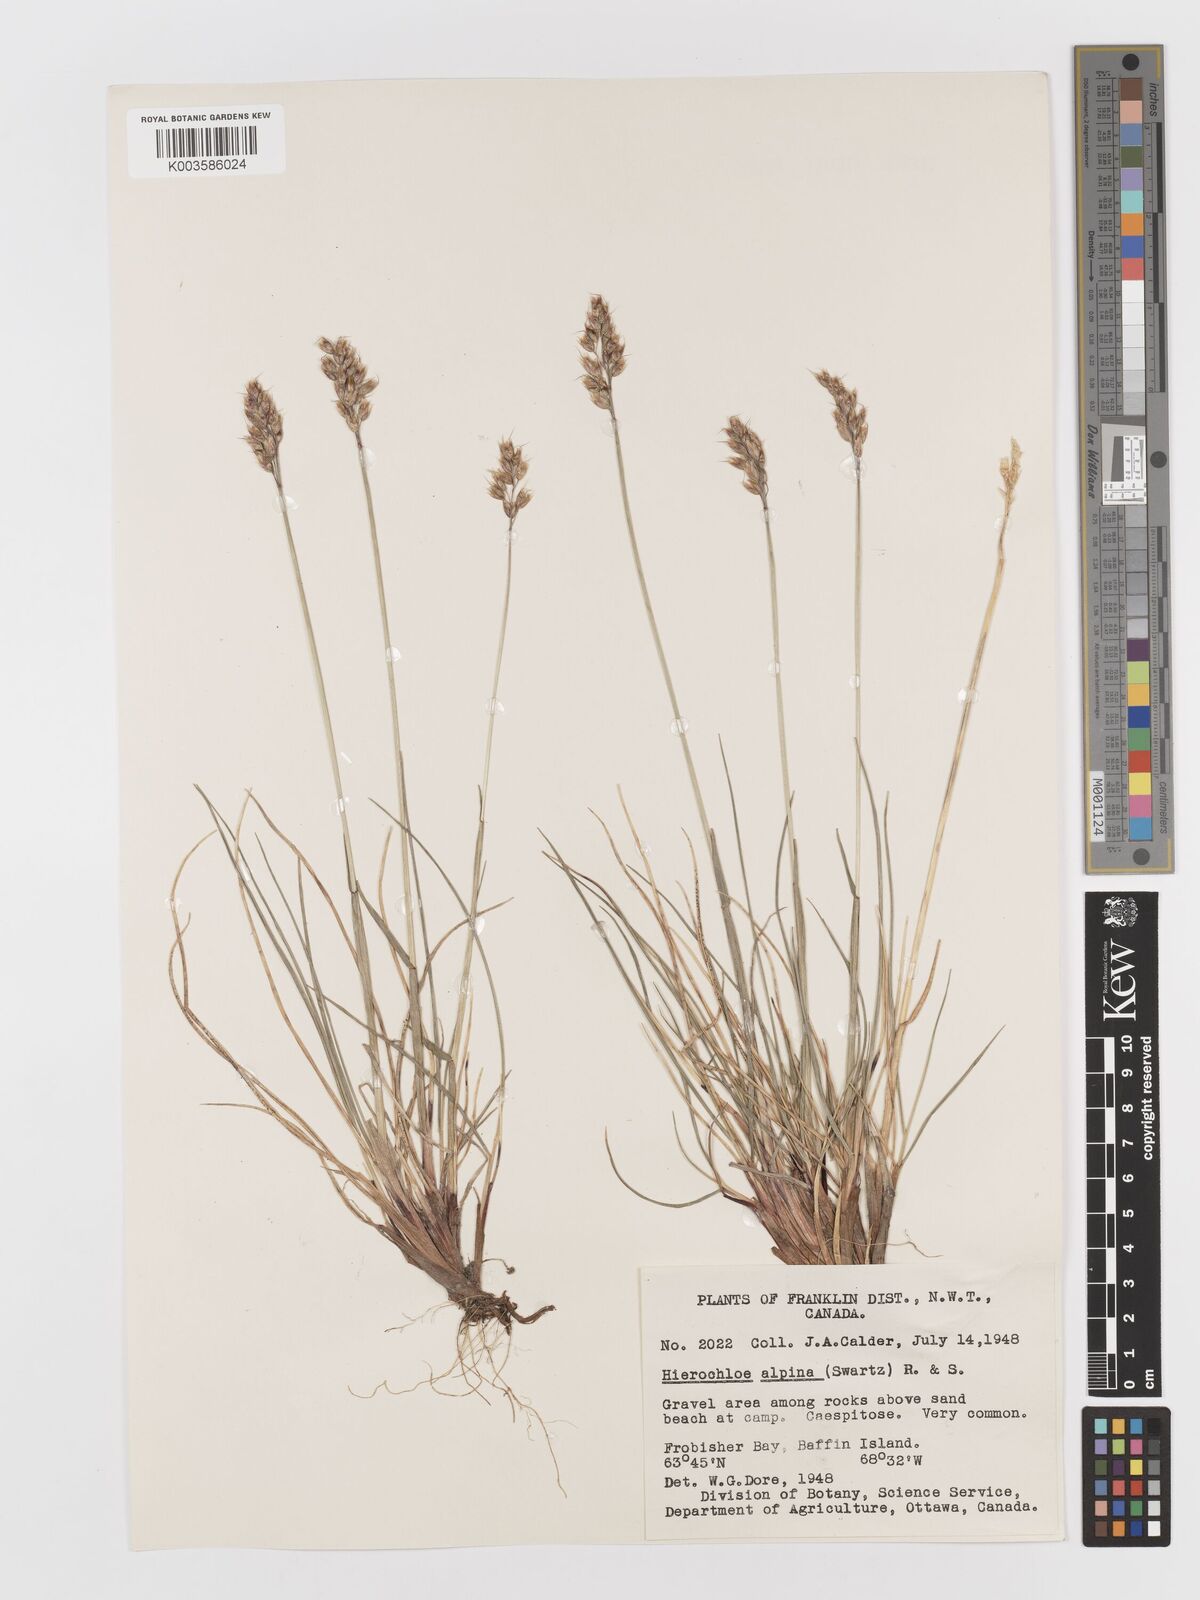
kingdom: Plantae
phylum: Tracheophyta
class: Liliopsida
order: Poales
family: Poaceae
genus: Anthoxanthum
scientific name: Anthoxanthum monticola
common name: Alpine sweetgrass
